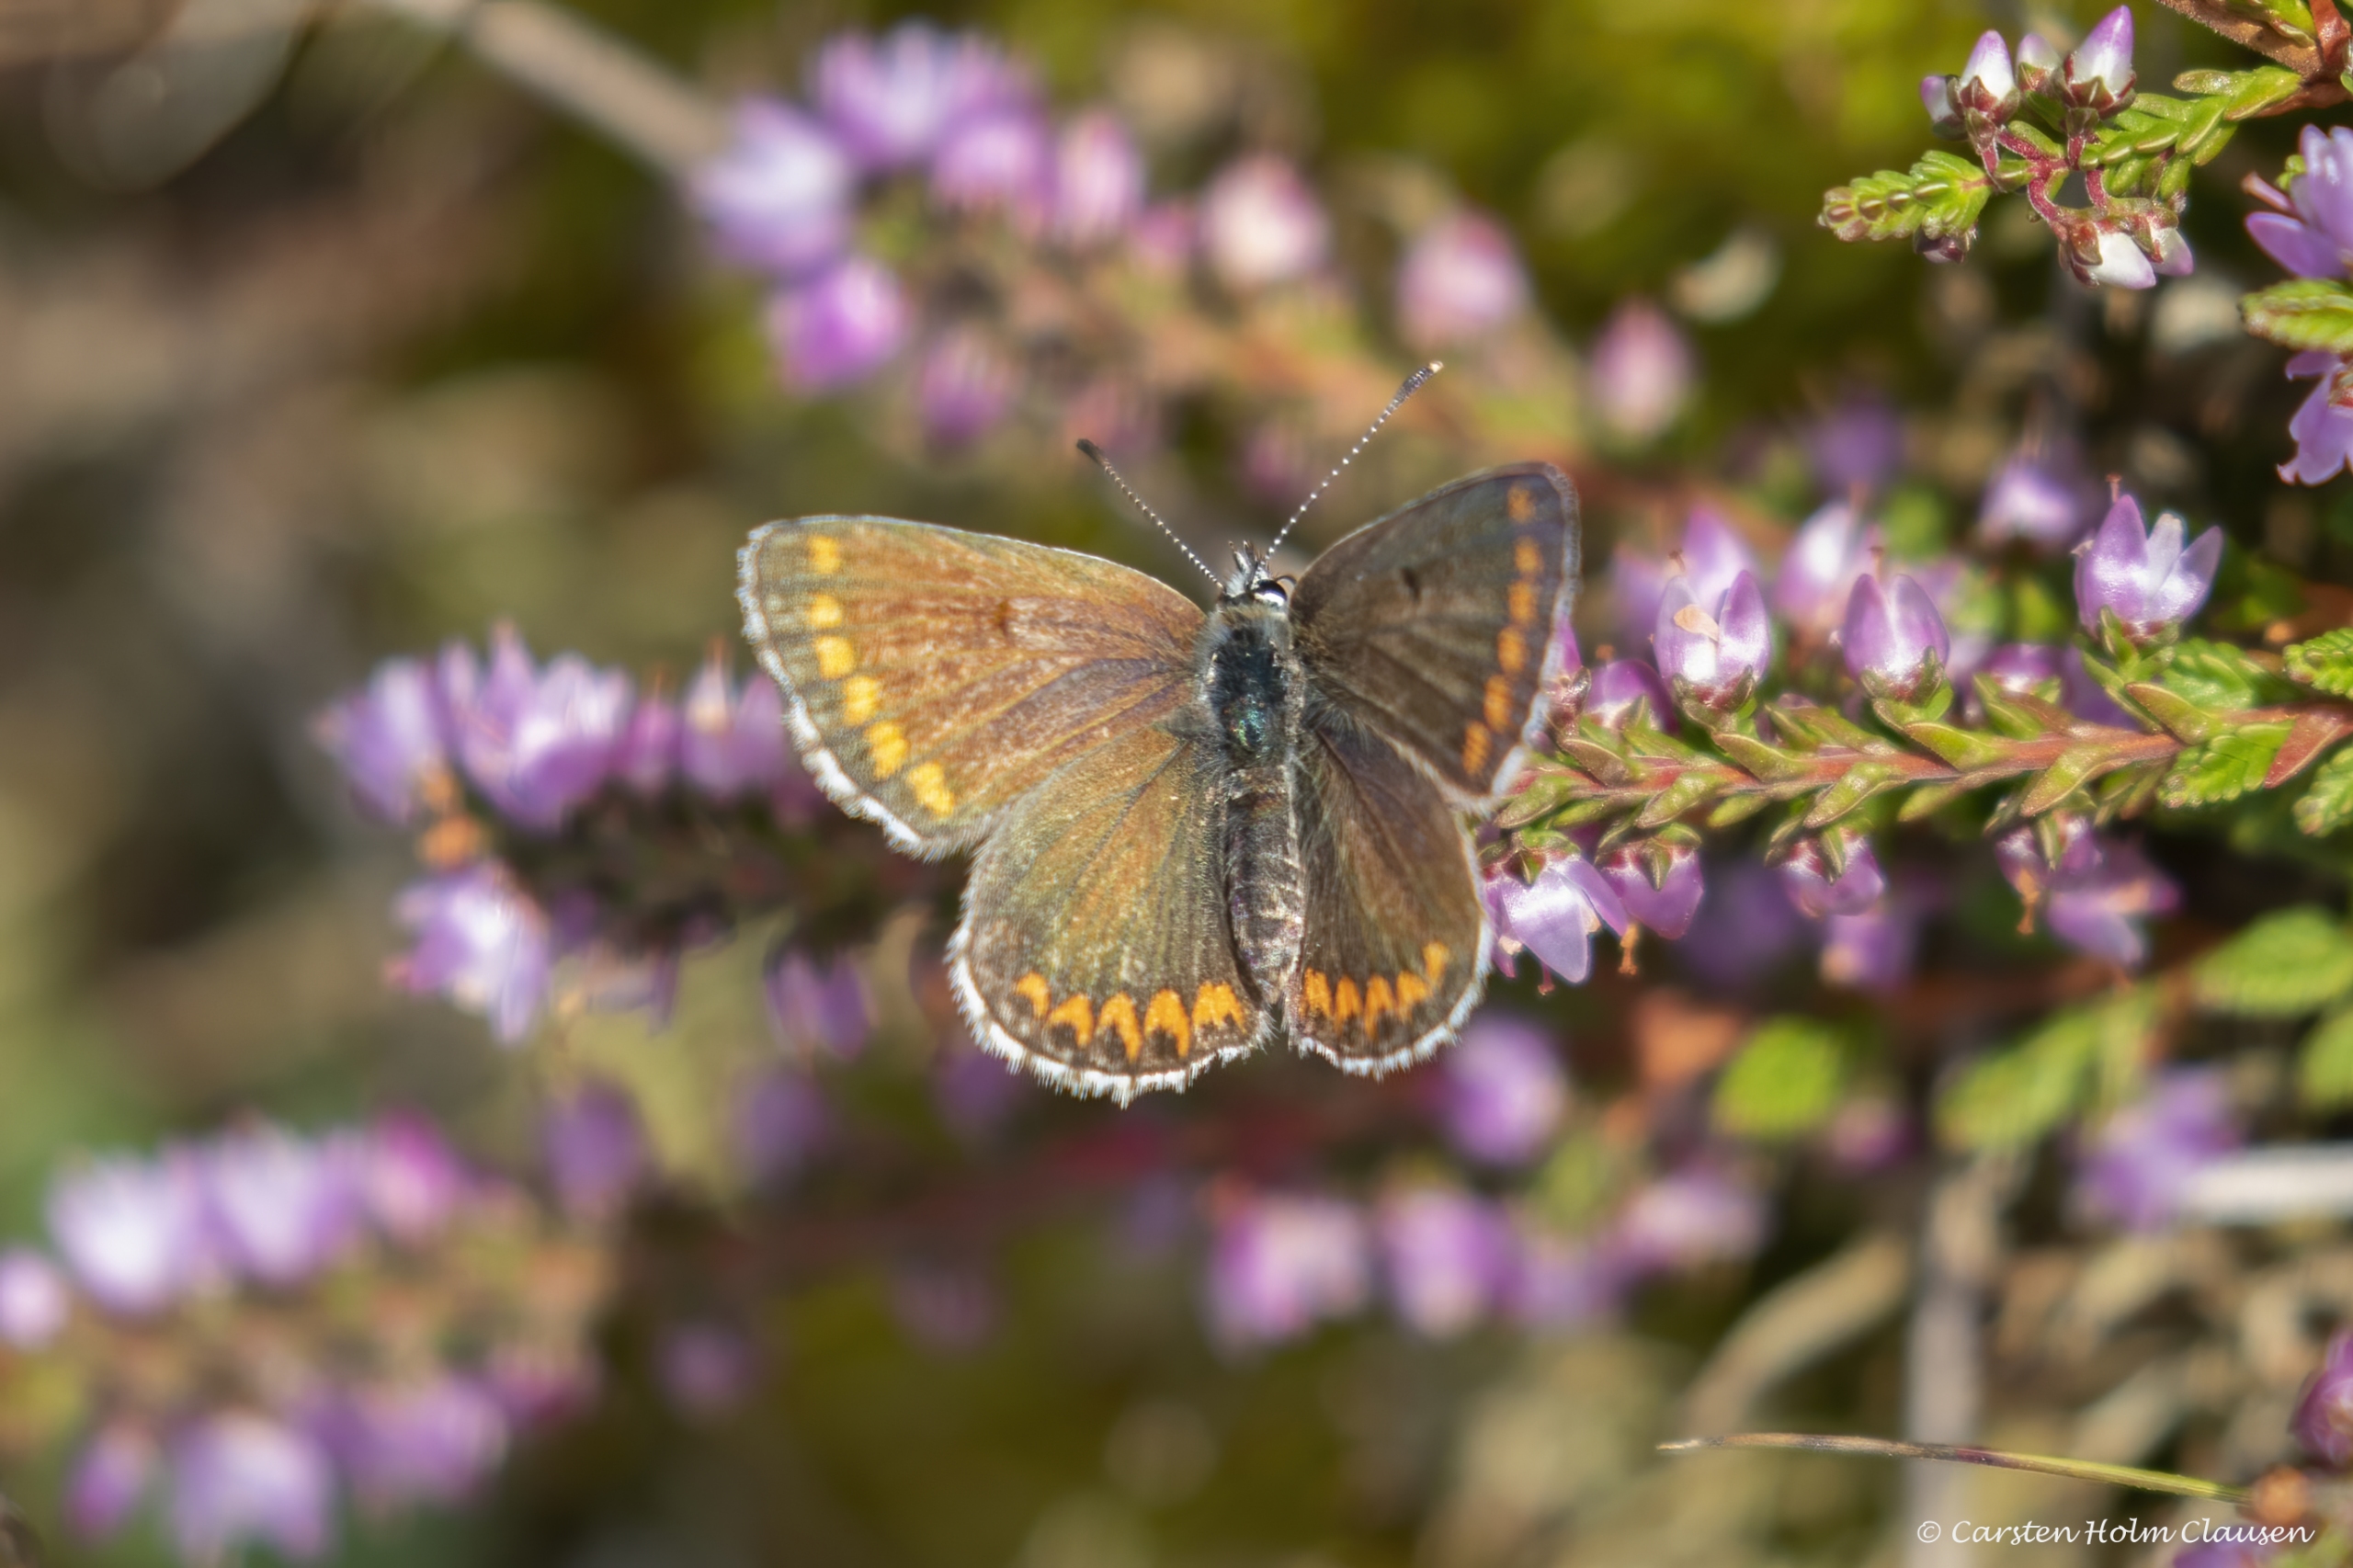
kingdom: Animalia
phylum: Arthropoda
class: Insecta
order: Lepidoptera
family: Lycaenidae
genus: Aricia
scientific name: Aricia agestis
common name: Rødplettet blåfugl
